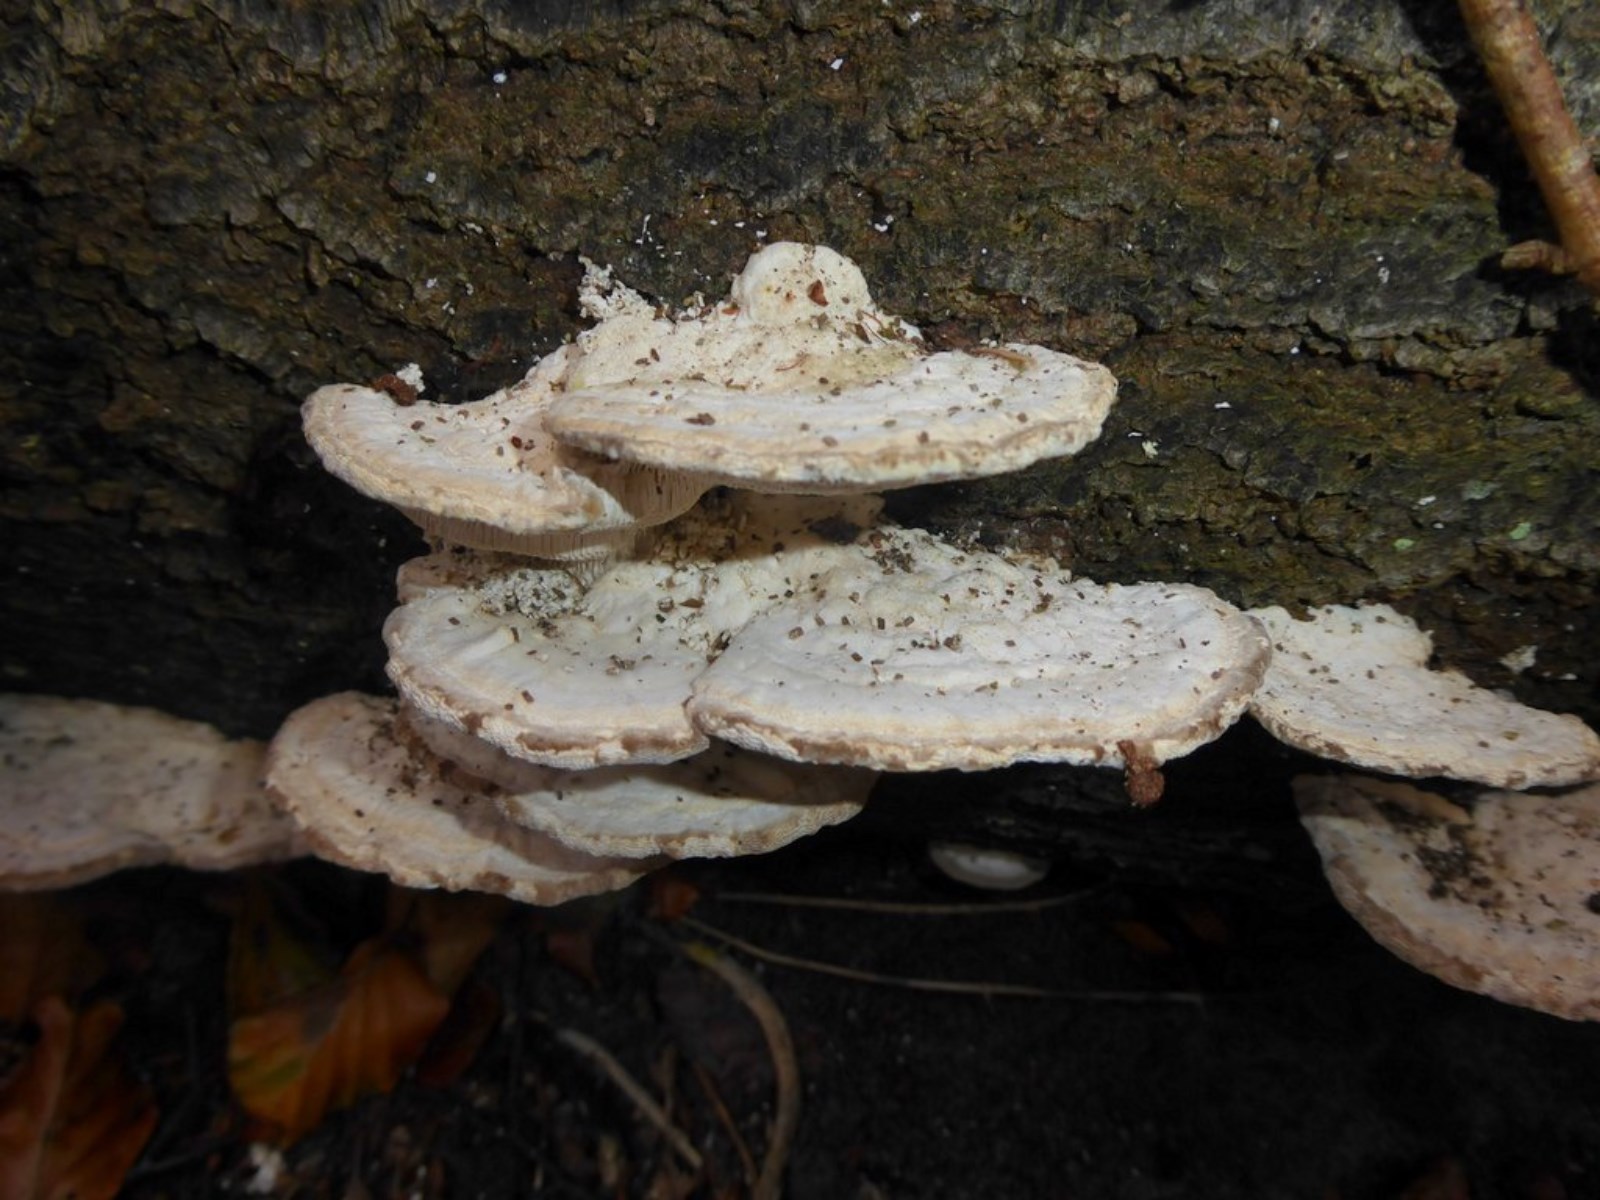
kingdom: Fungi
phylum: Basidiomycota
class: Agaricomycetes
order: Polyporales
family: Polyporaceae
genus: Trametes
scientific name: Trametes gibbosa
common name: puklet læderporesvamp
